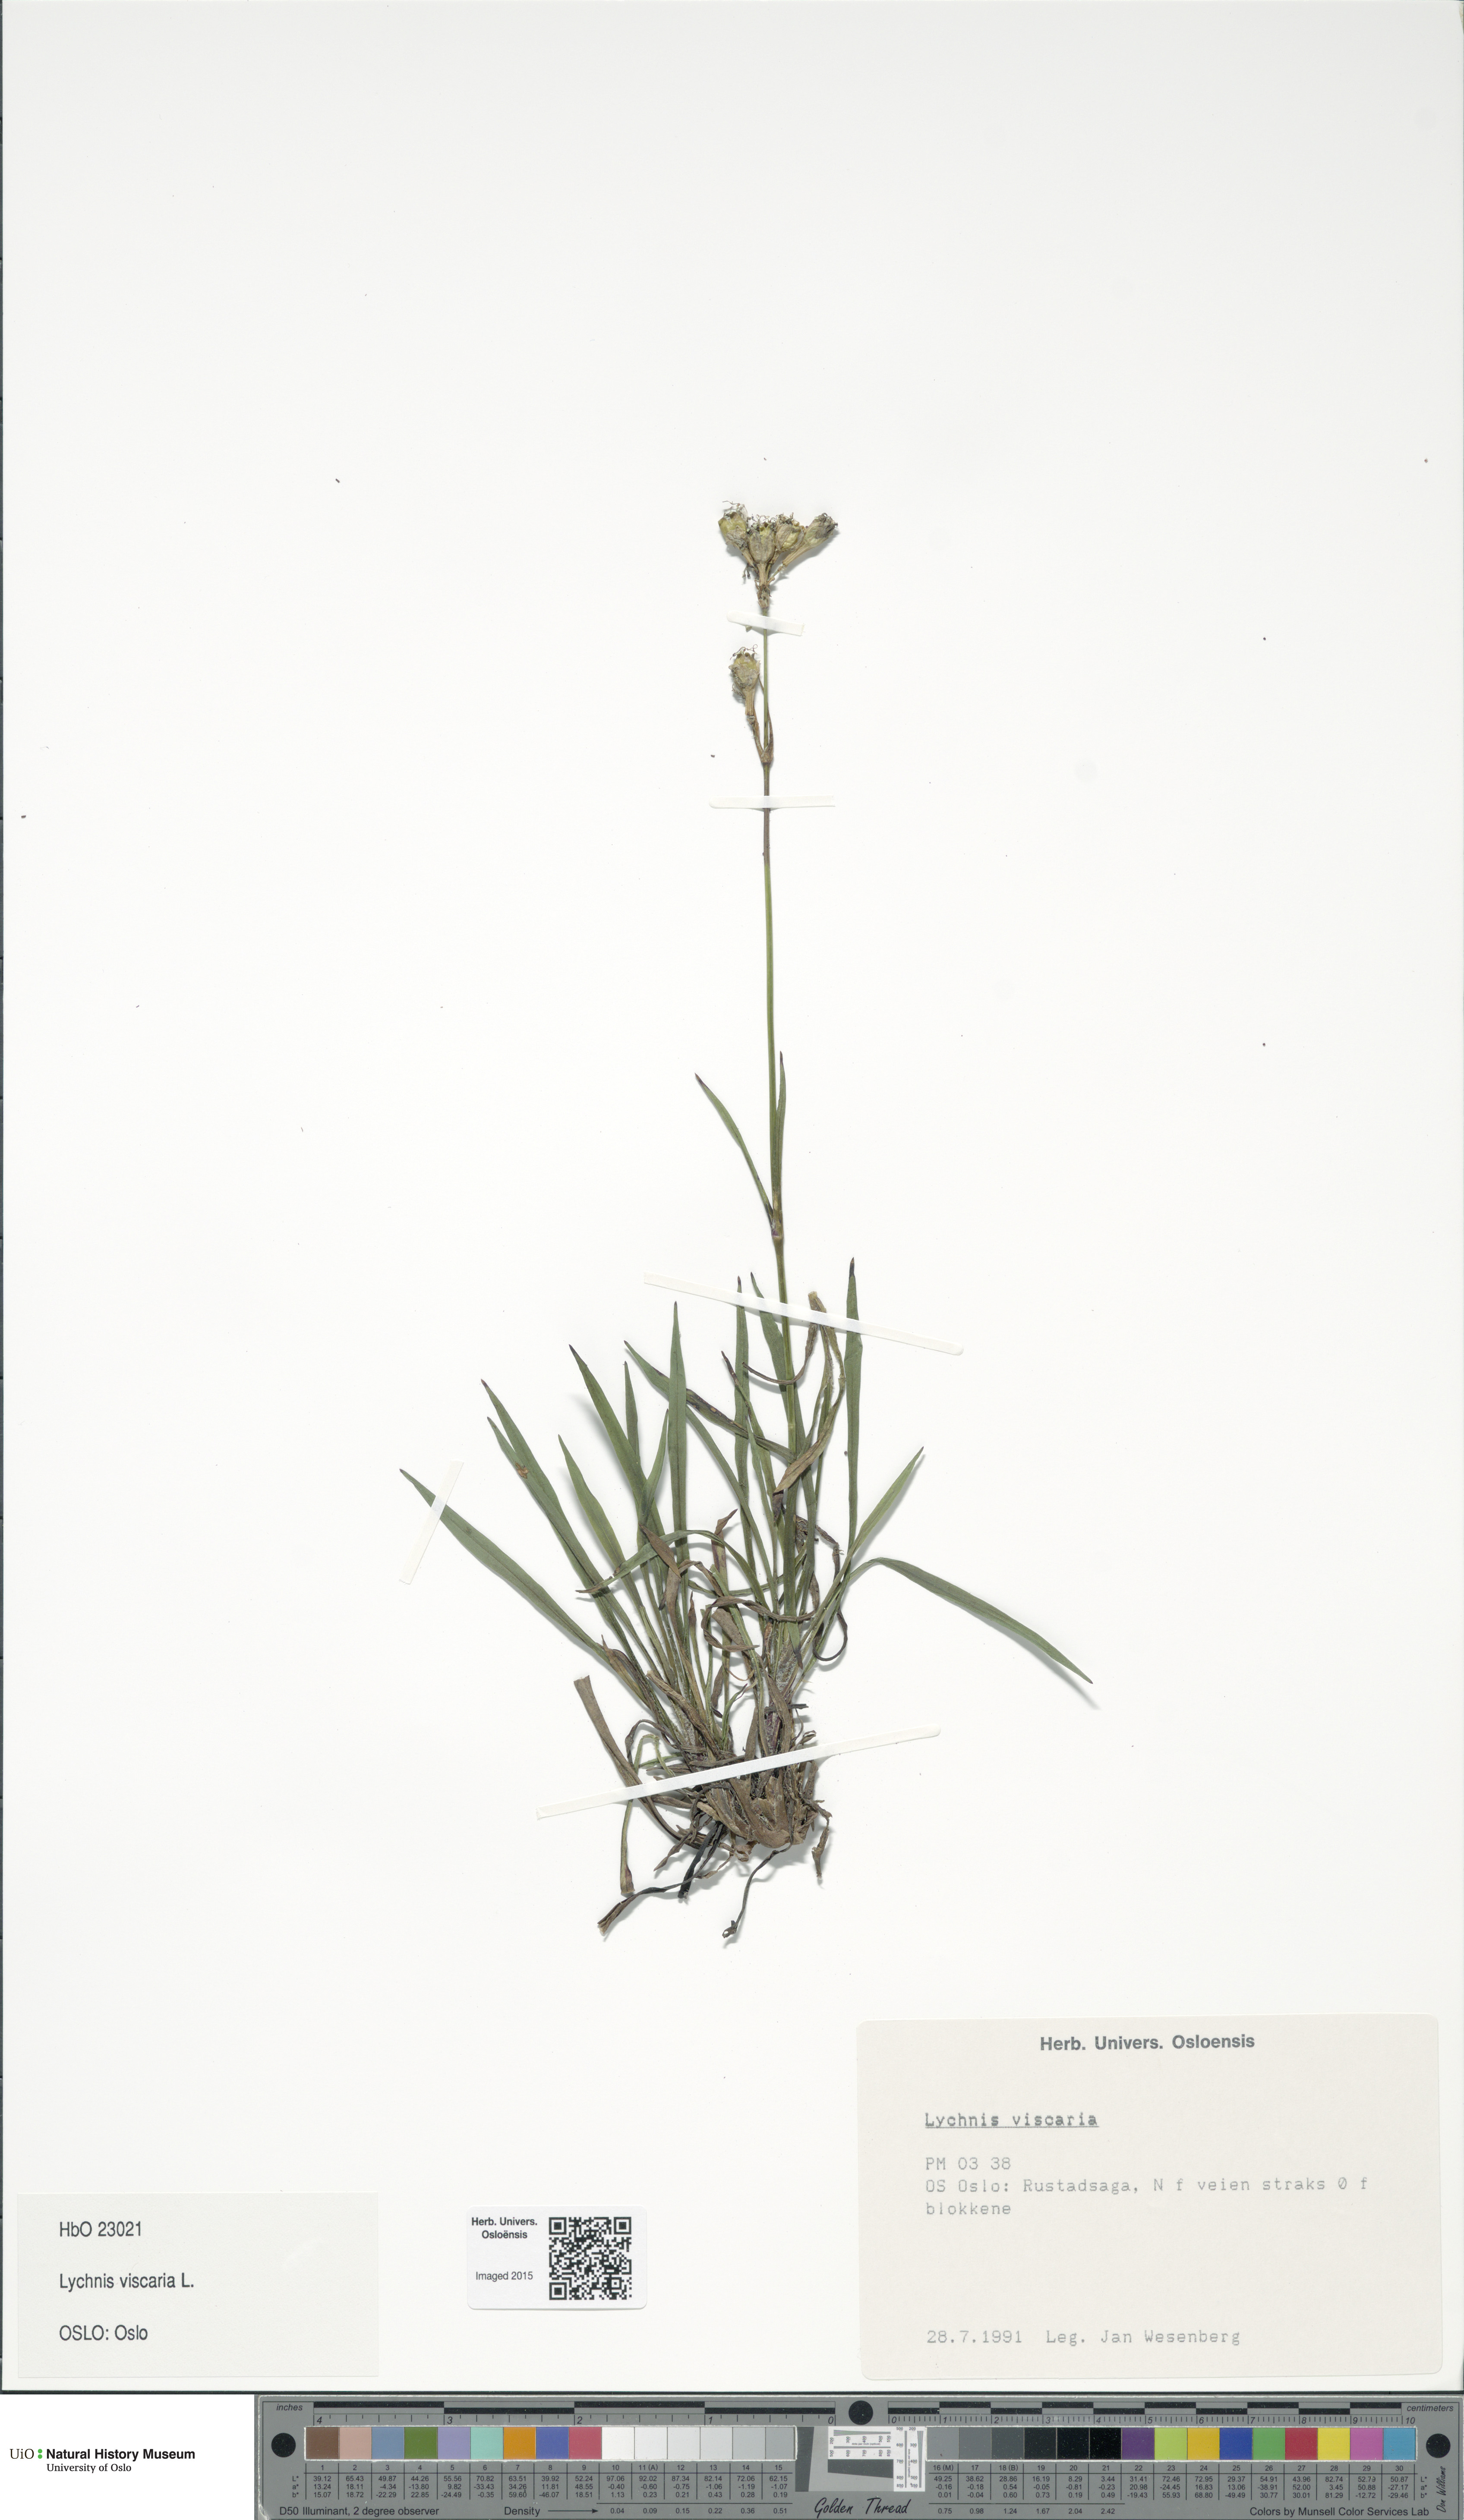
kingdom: Plantae
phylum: Tracheophyta
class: Magnoliopsida
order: Caryophyllales
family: Caryophyllaceae
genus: Viscaria
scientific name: Viscaria vulgaris
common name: Clammy campion
